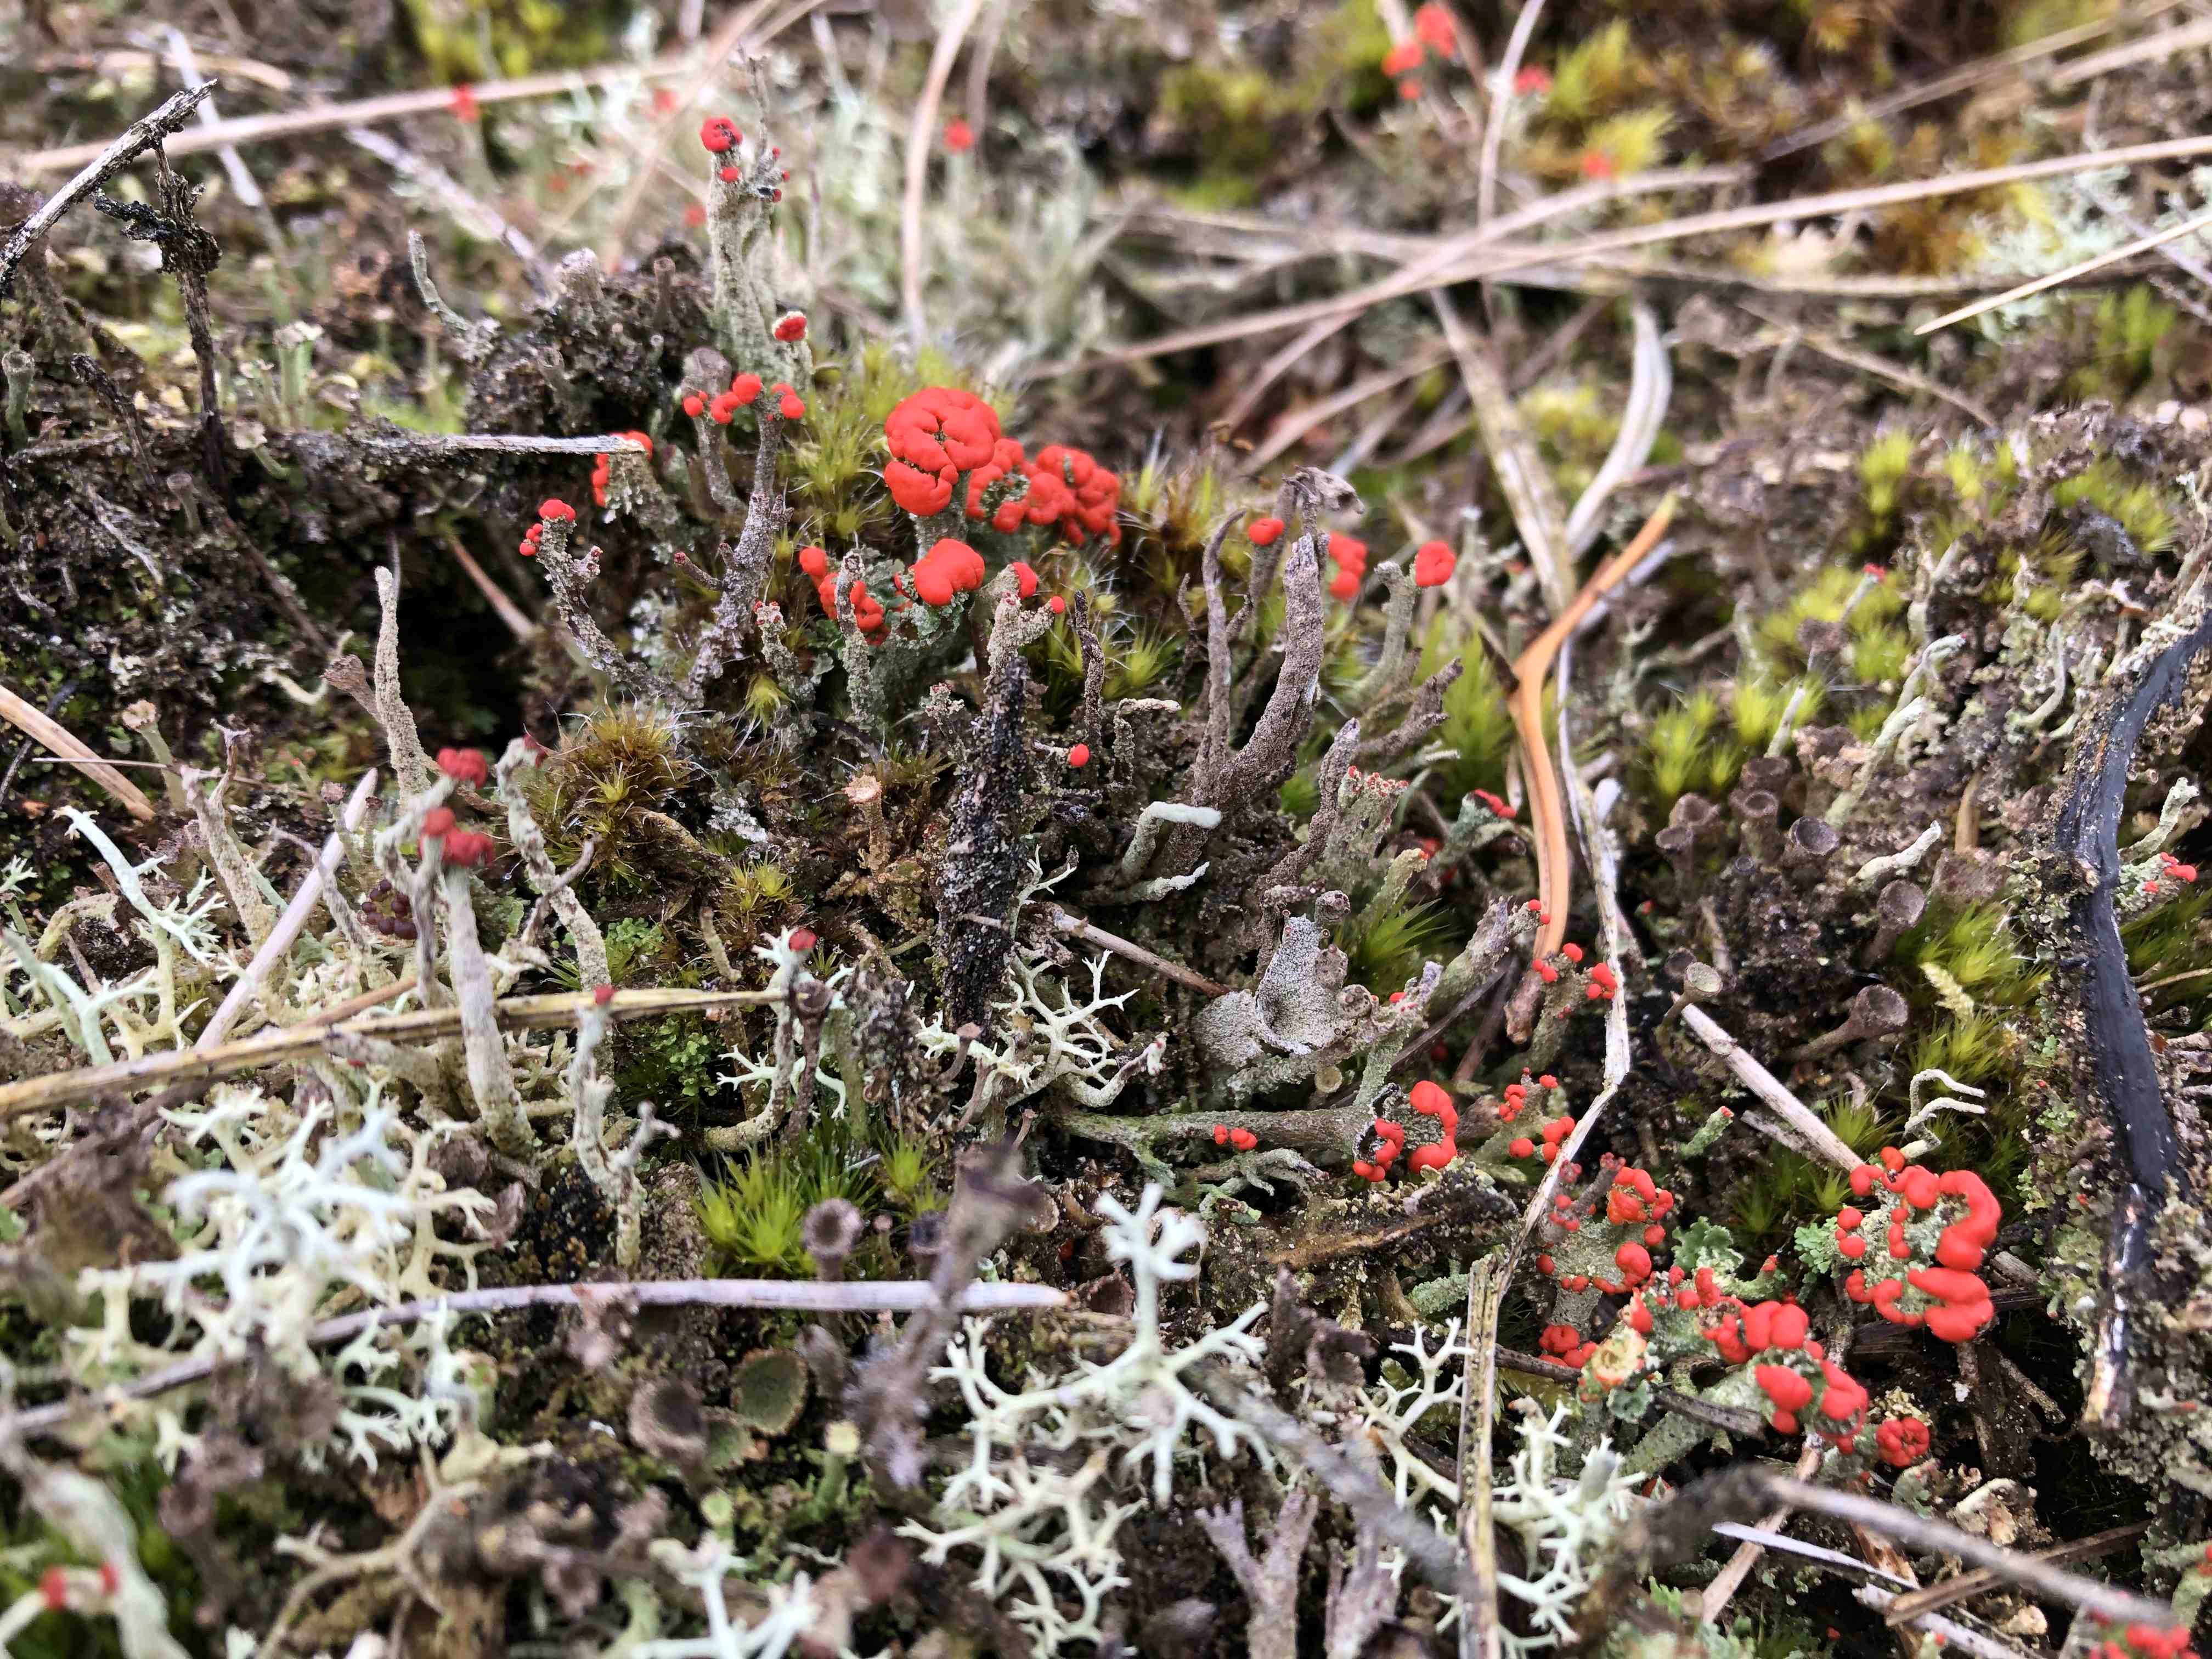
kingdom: Fungi
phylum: Ascomycota
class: Lecanoromycetes
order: Lecanorales
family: Cladoniaceae
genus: Cladonia
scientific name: Cladonia floerkeana
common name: lakrød bægerlav
